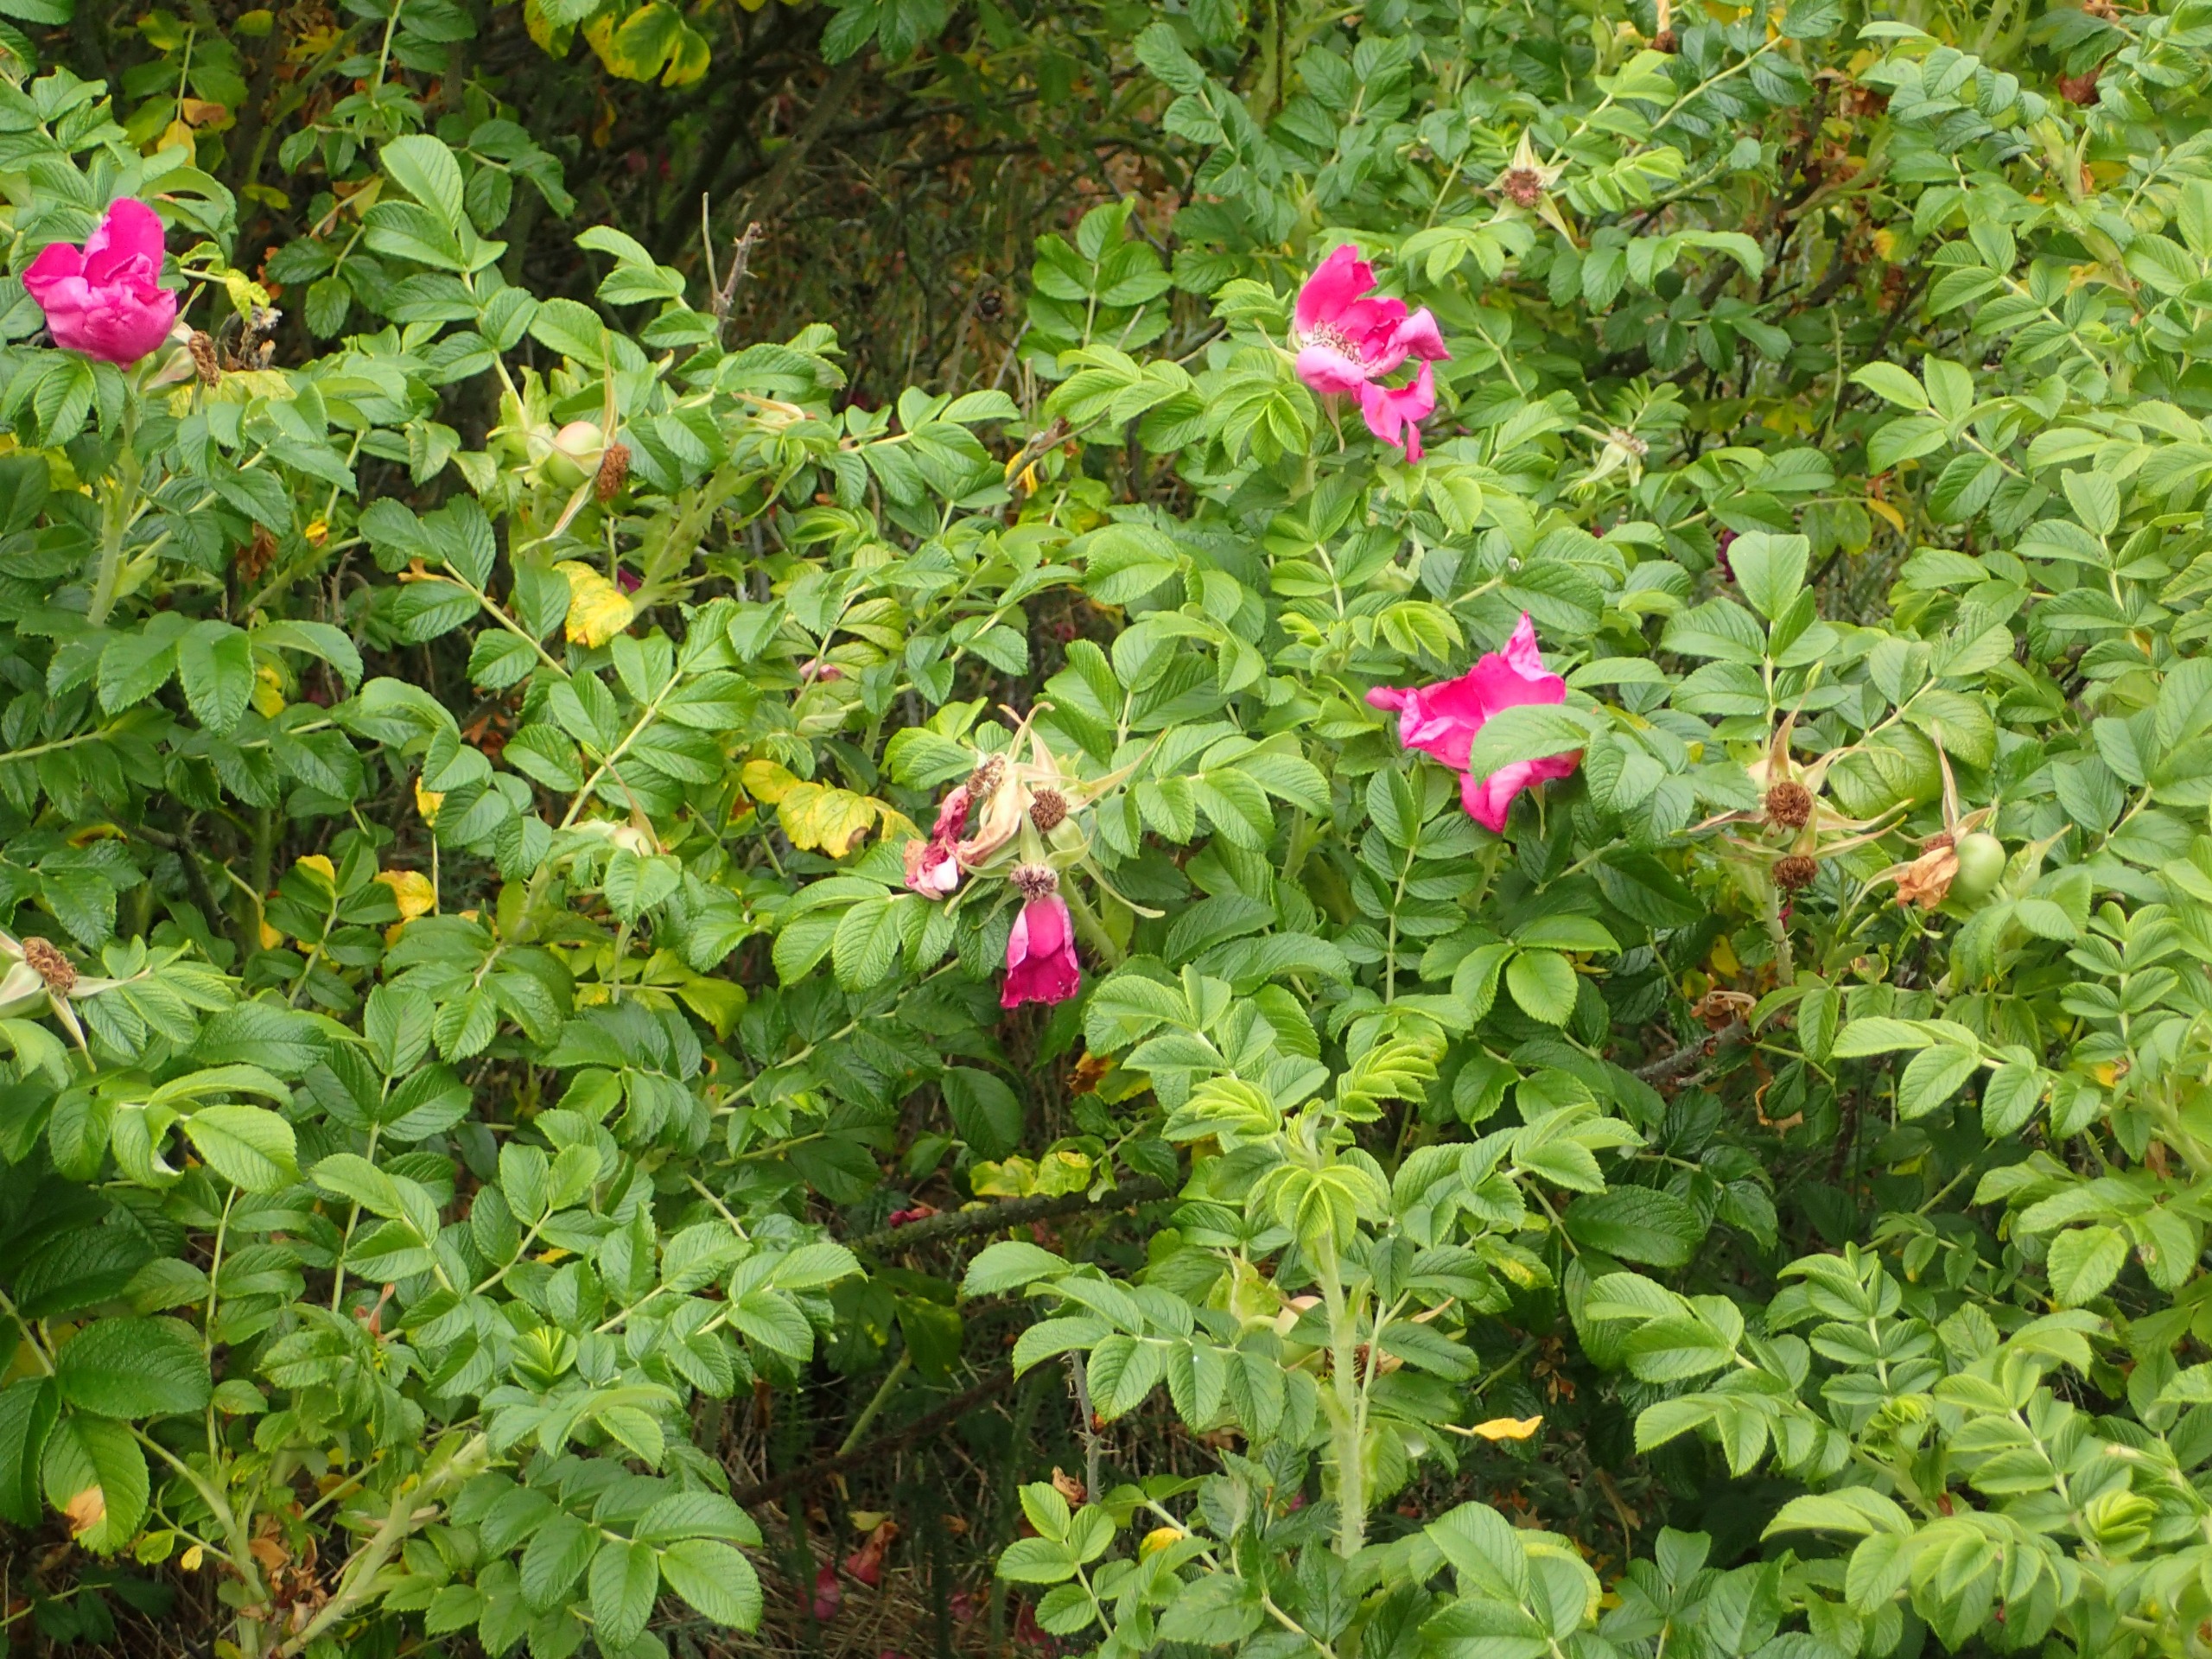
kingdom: Plantae
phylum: Tracheophyta
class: Magnoliopsida
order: Rosales
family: Rosaceae
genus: Rosa
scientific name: Rosa rugosa
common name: Rynket rose
